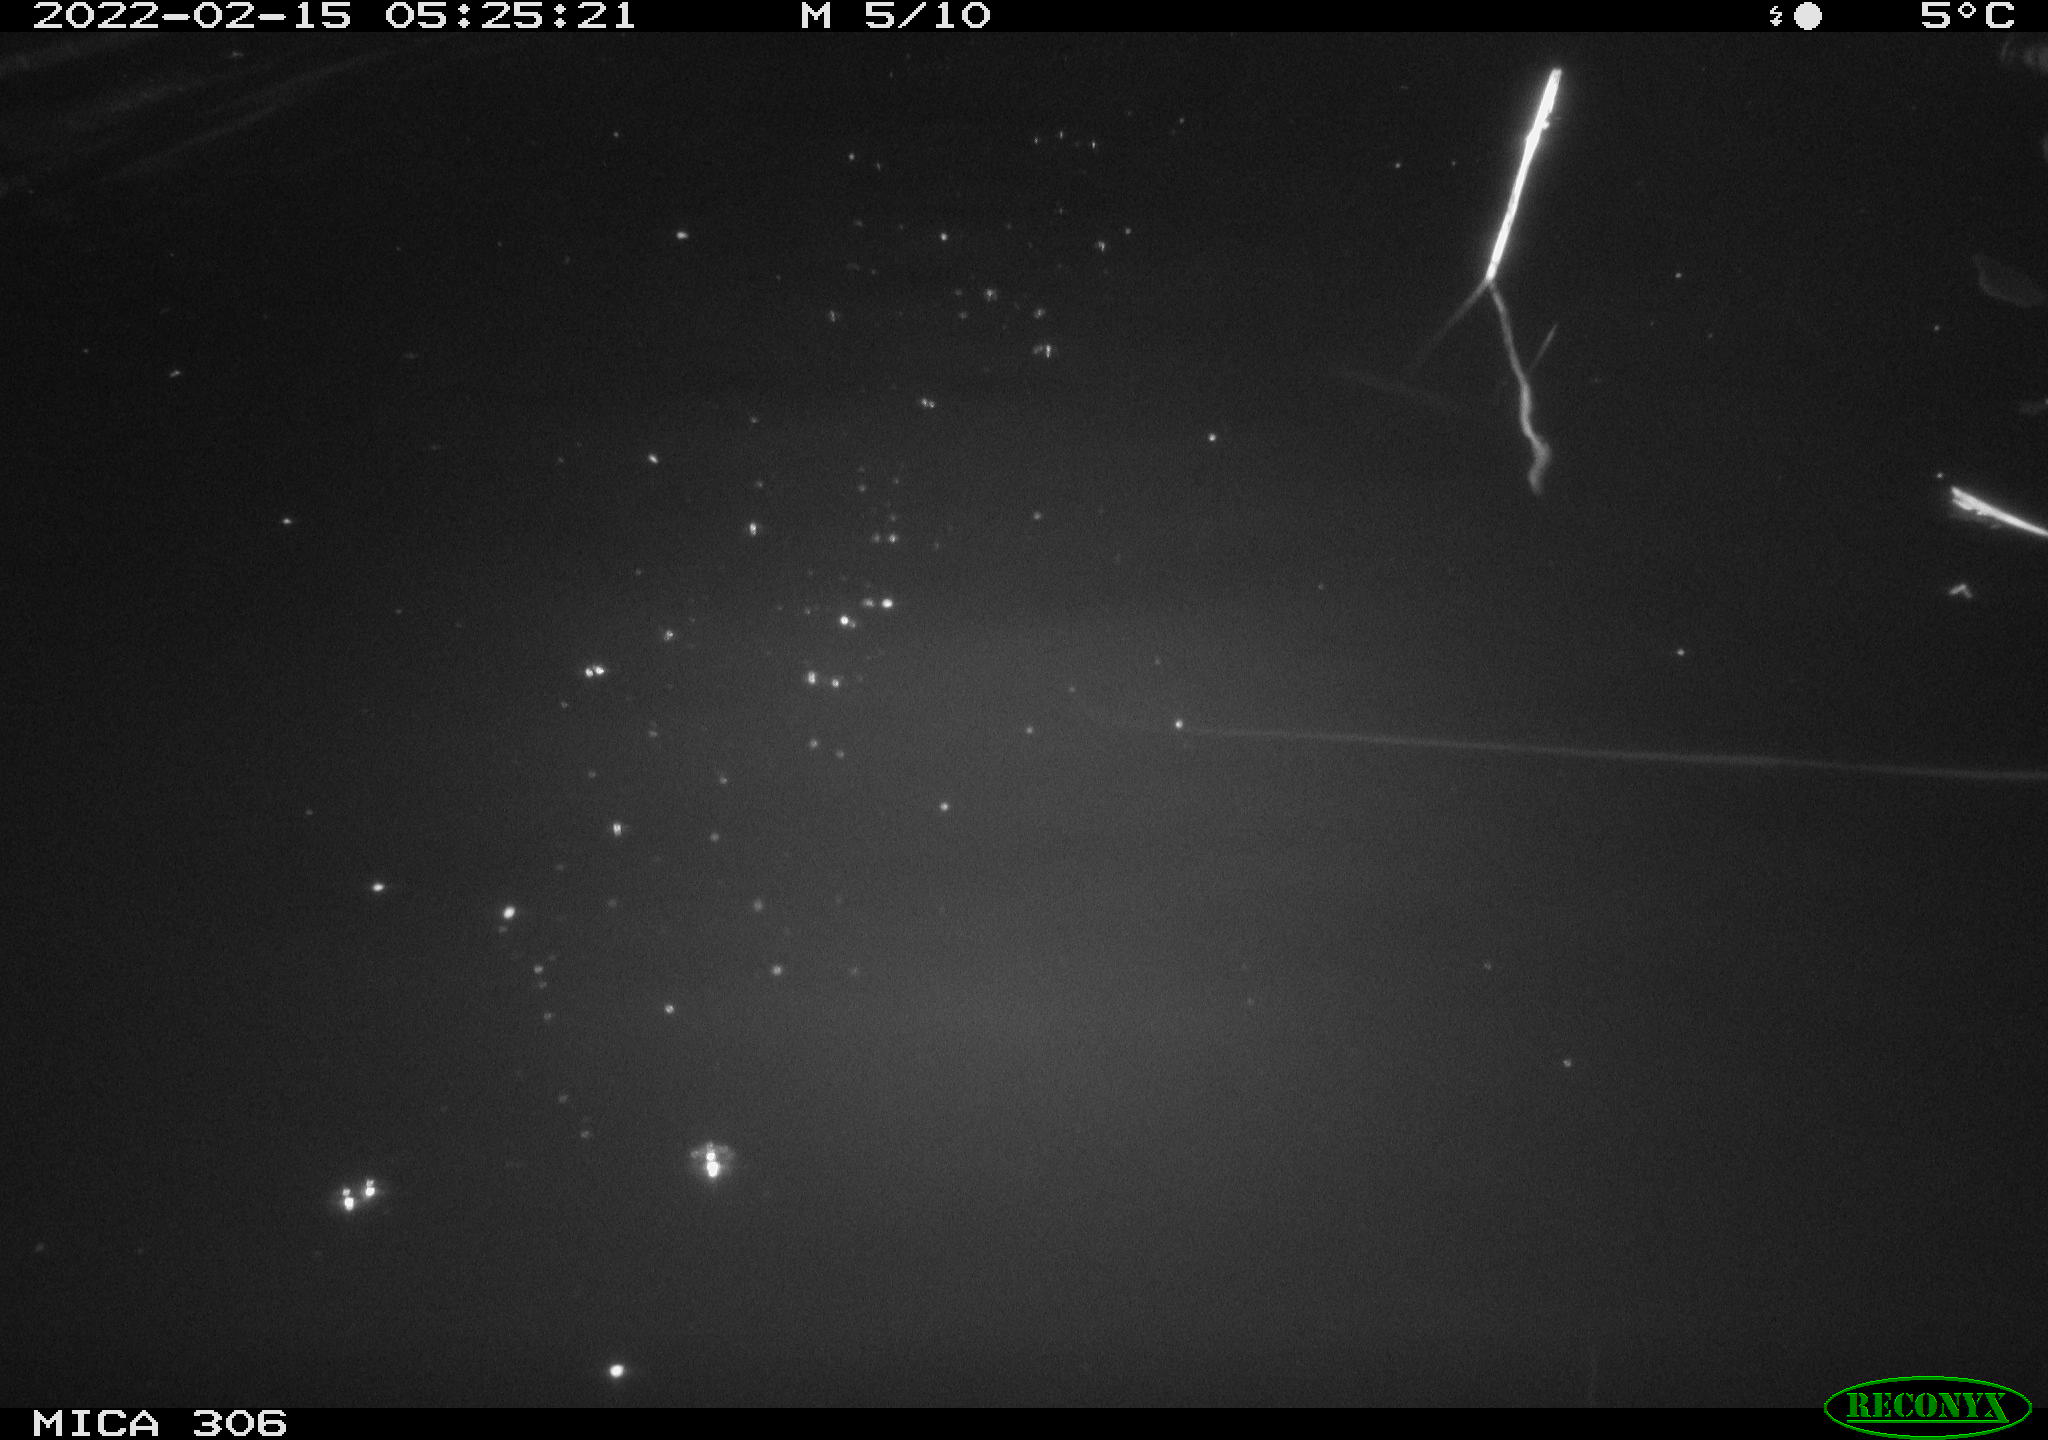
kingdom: Animalia
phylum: Chordata
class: Mammalia
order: Rodentia
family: Cricetidae
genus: Ondatra
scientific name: Ondatra zibethicus
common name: Muskrat
